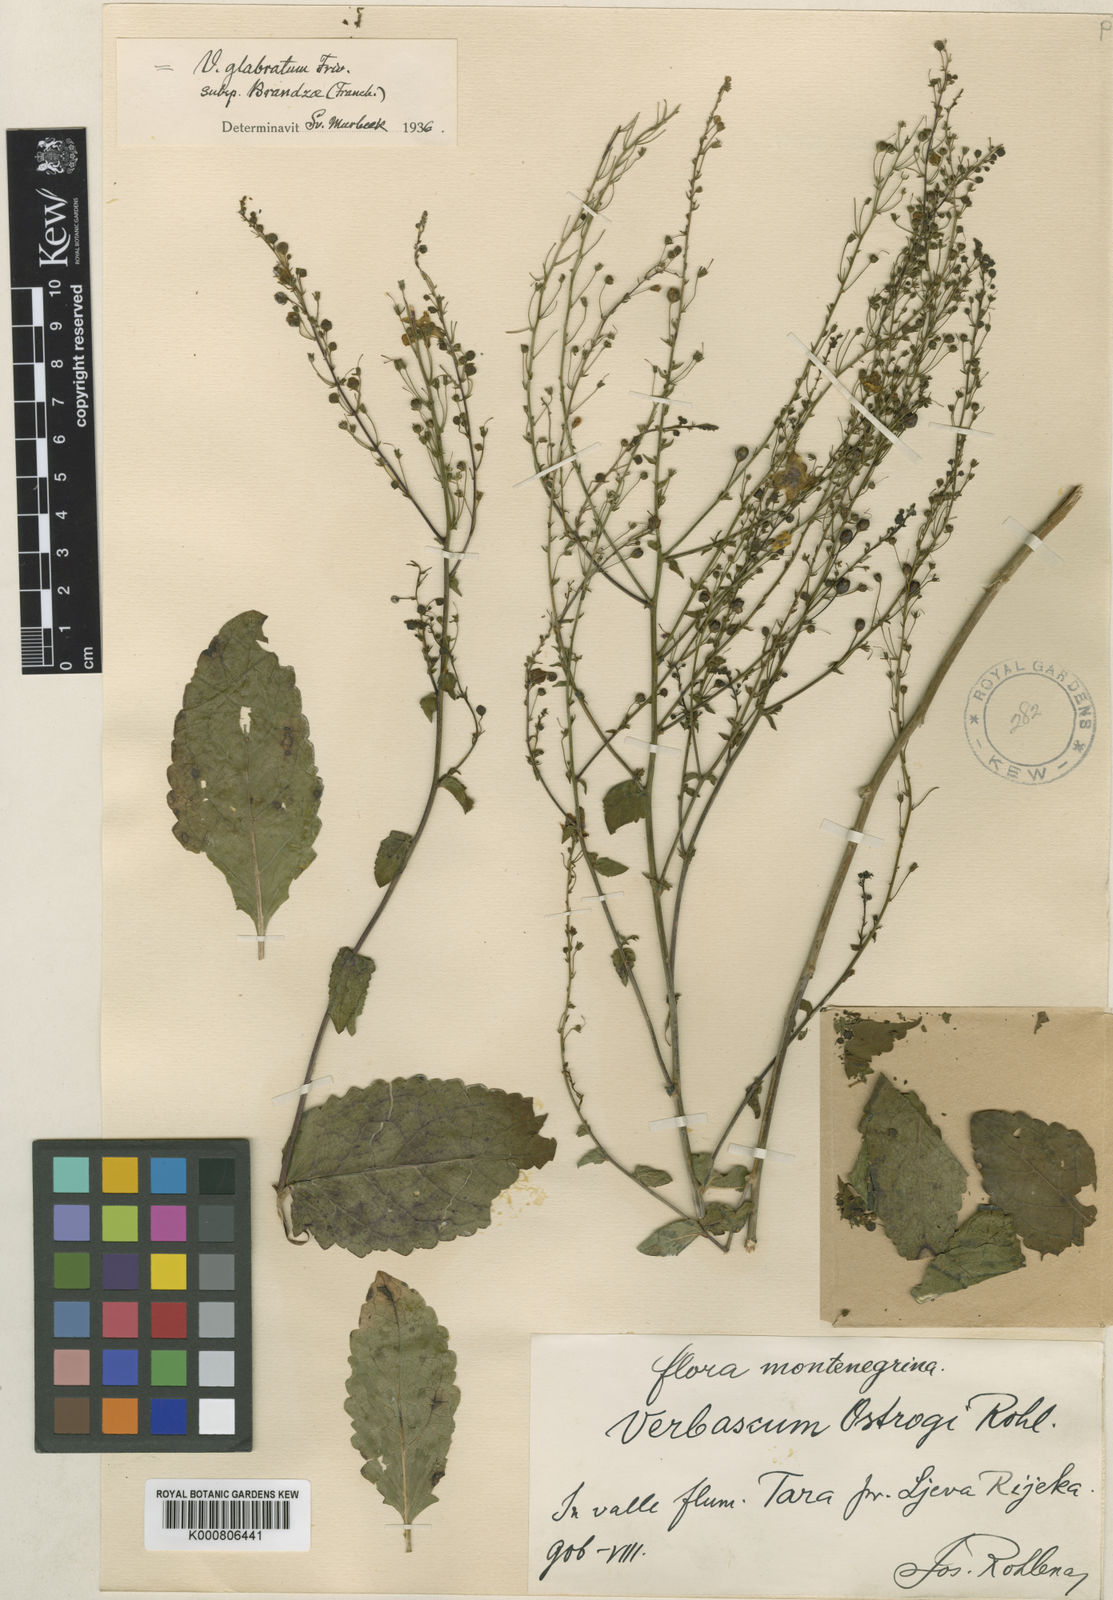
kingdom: Plantae
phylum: Tracheophyta
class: Magnoliopsida
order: Lamiales
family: Scrophulariaceae
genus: Verbascum
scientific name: Verbascum glabratum
